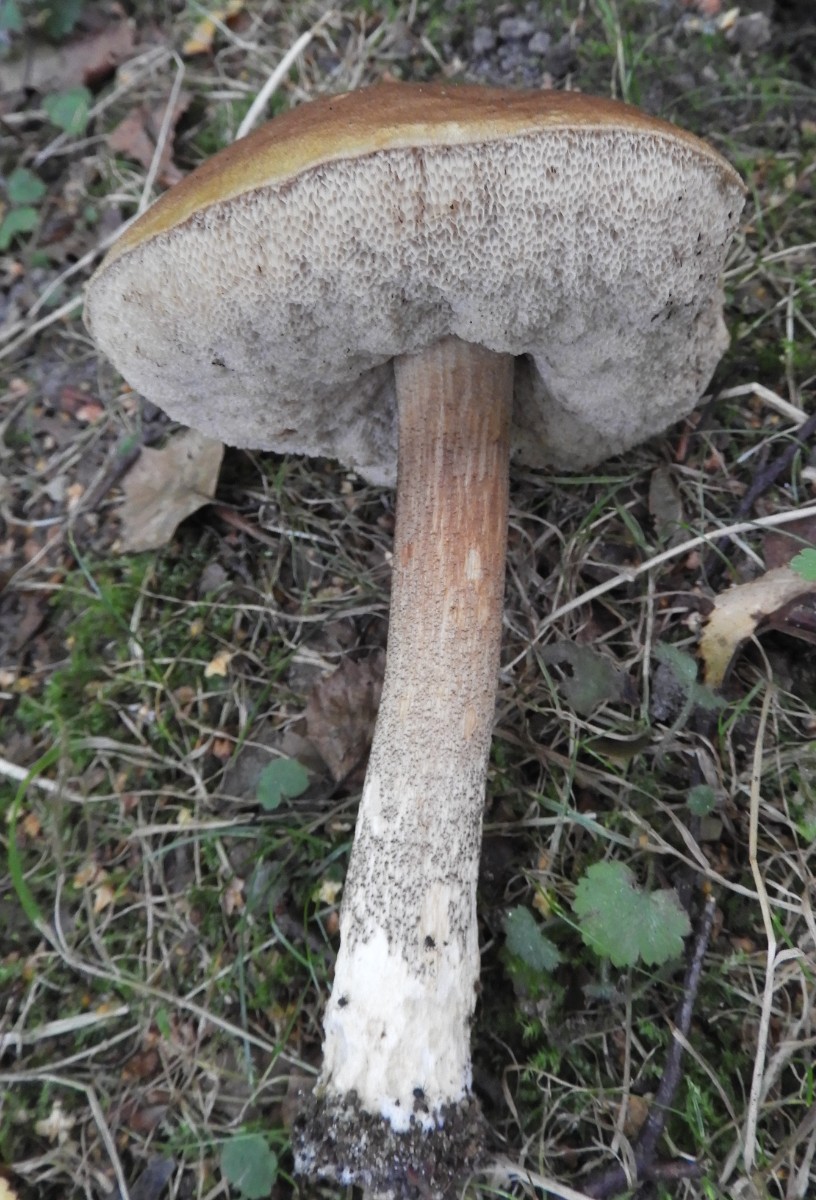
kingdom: Fungi
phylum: Basidiomycota
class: Agaricomycetes
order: Boletales
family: Boletaceae
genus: Leccinum
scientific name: Leccinum scabrum
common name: brun skælrørhat
